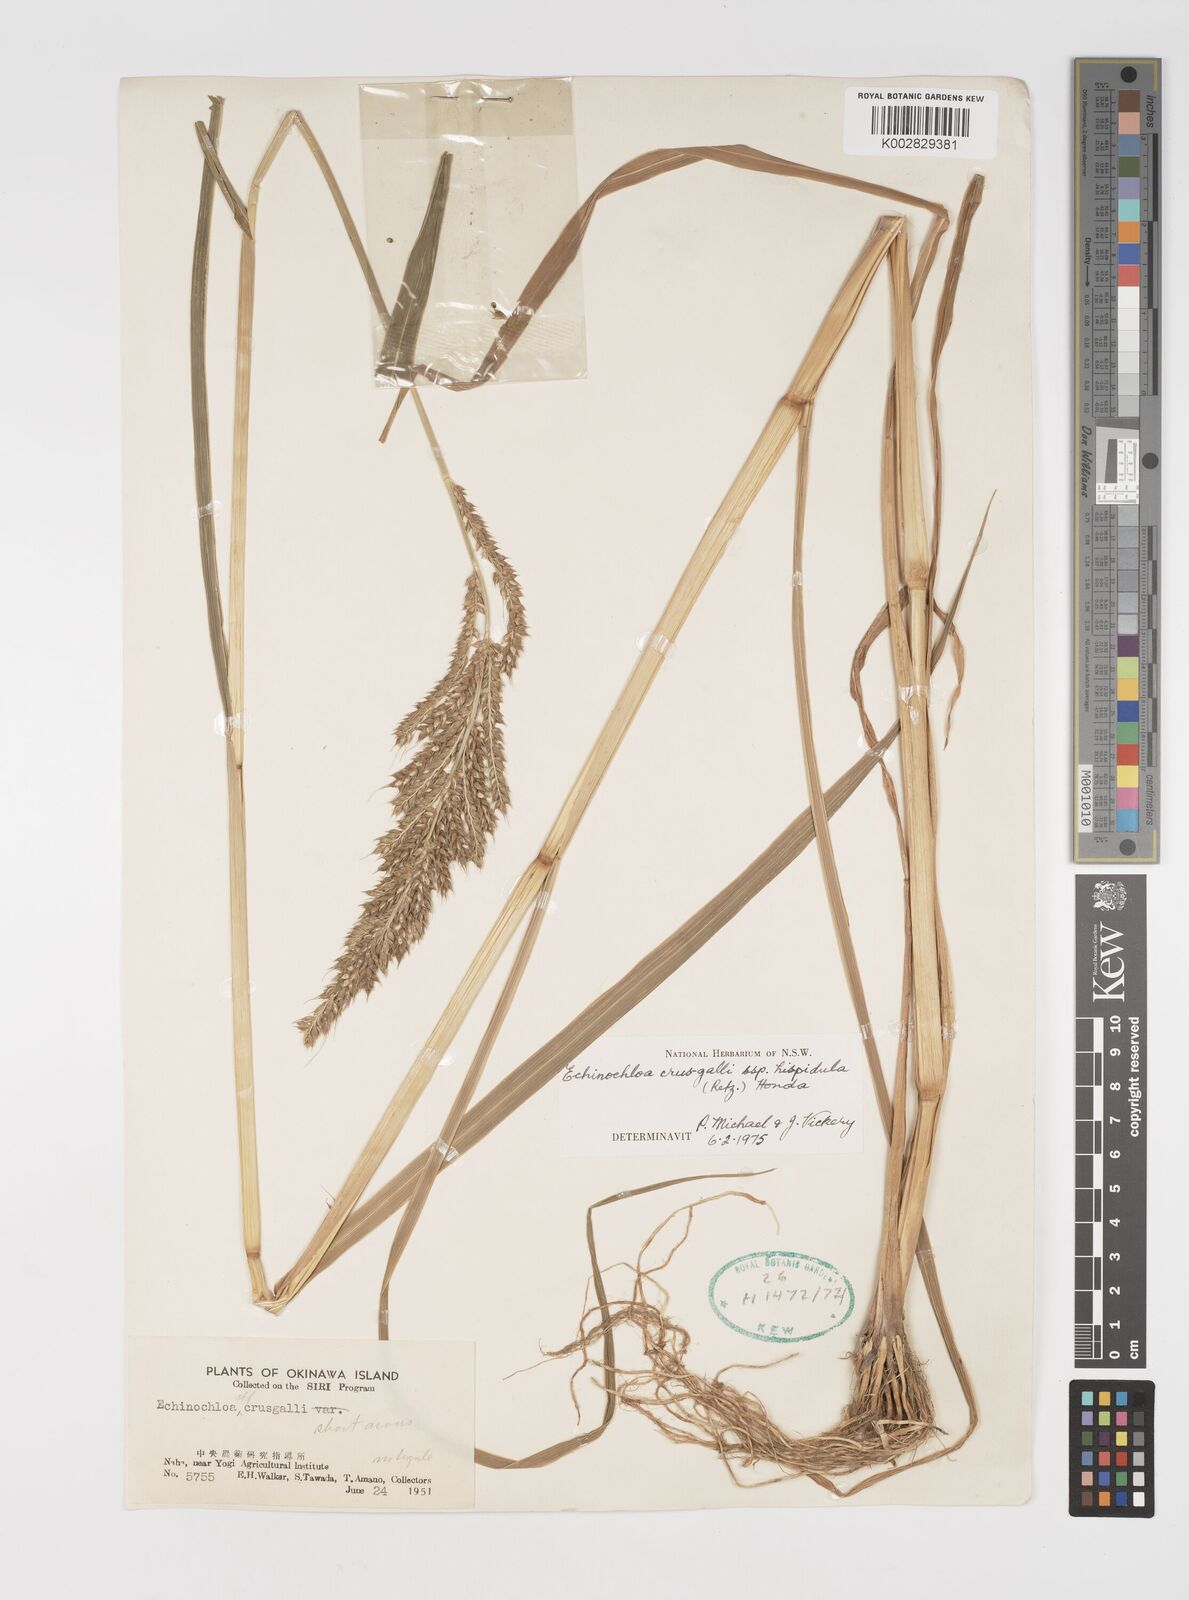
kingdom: Plantae
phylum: Tracheophyta
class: Liliopsida
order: Poales
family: Poaceae
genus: Echinochloa
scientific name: Echinochloa crus-galli
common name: Cockspur
